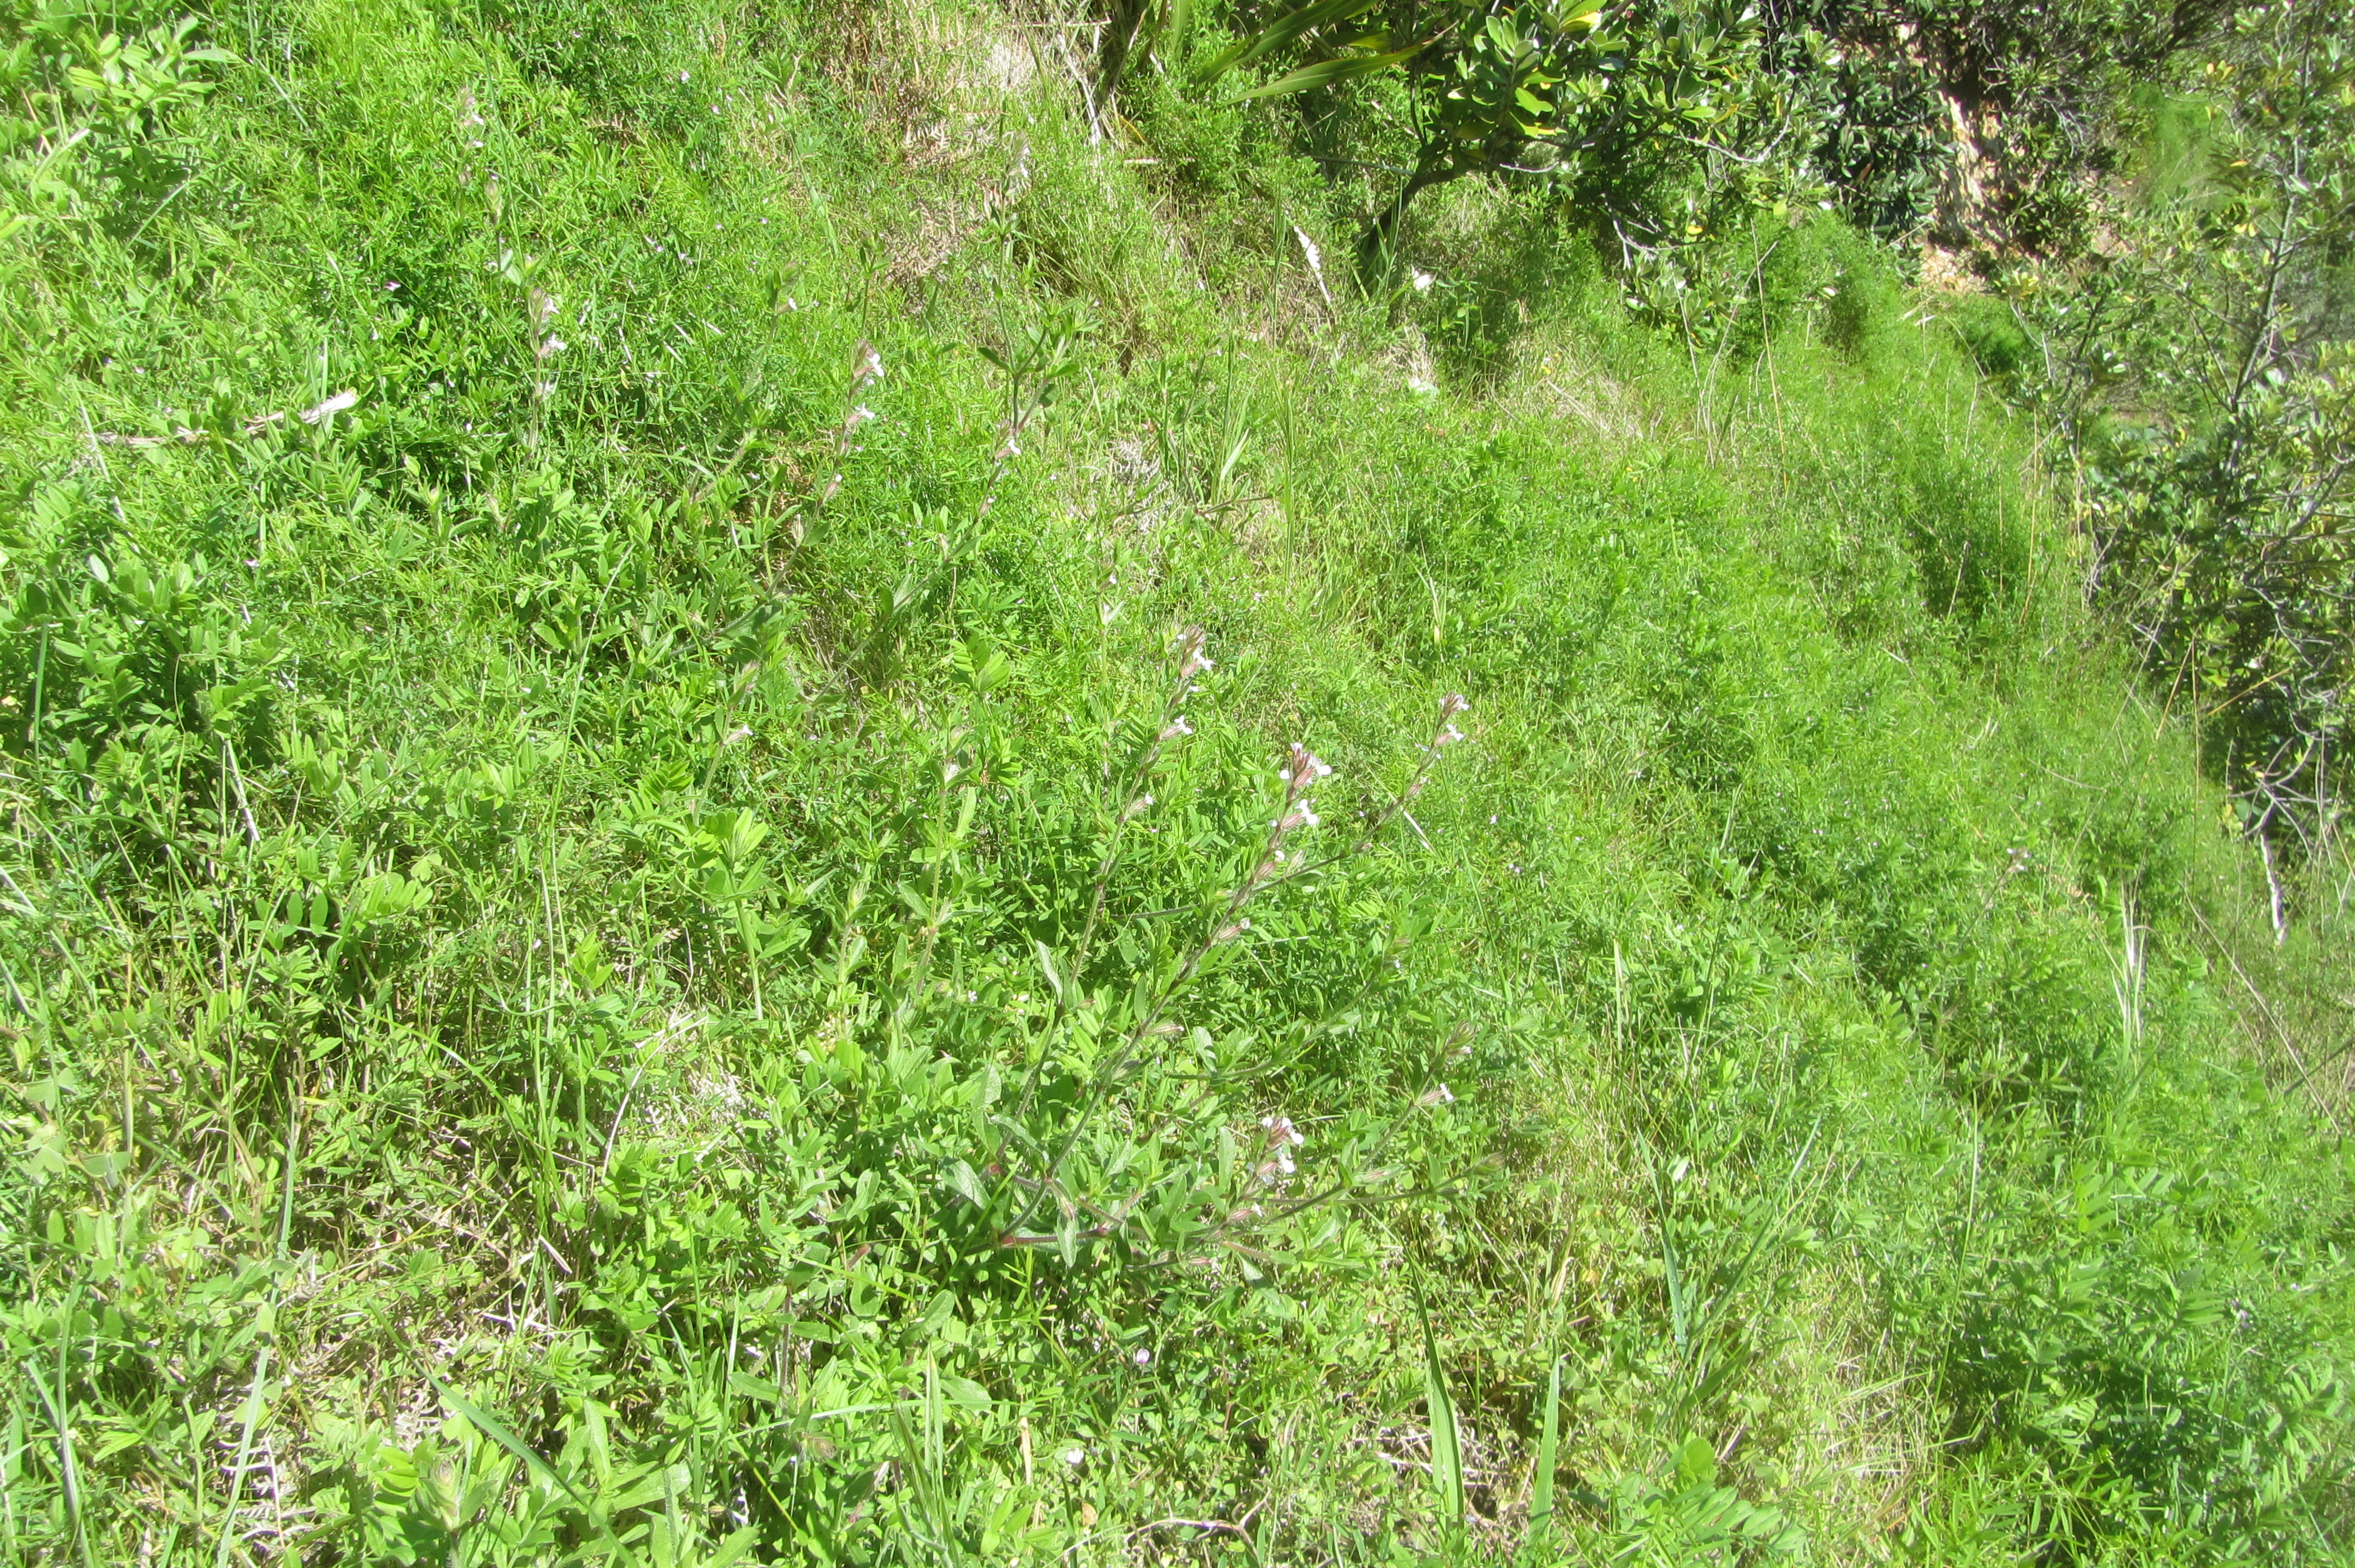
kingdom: Plantae
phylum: Tracheophyta
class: Magnoliopsida
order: Caryophyllales
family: Caryophyllaceae
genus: Silene
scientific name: Silene gallica
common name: Small-flowered catchfly
